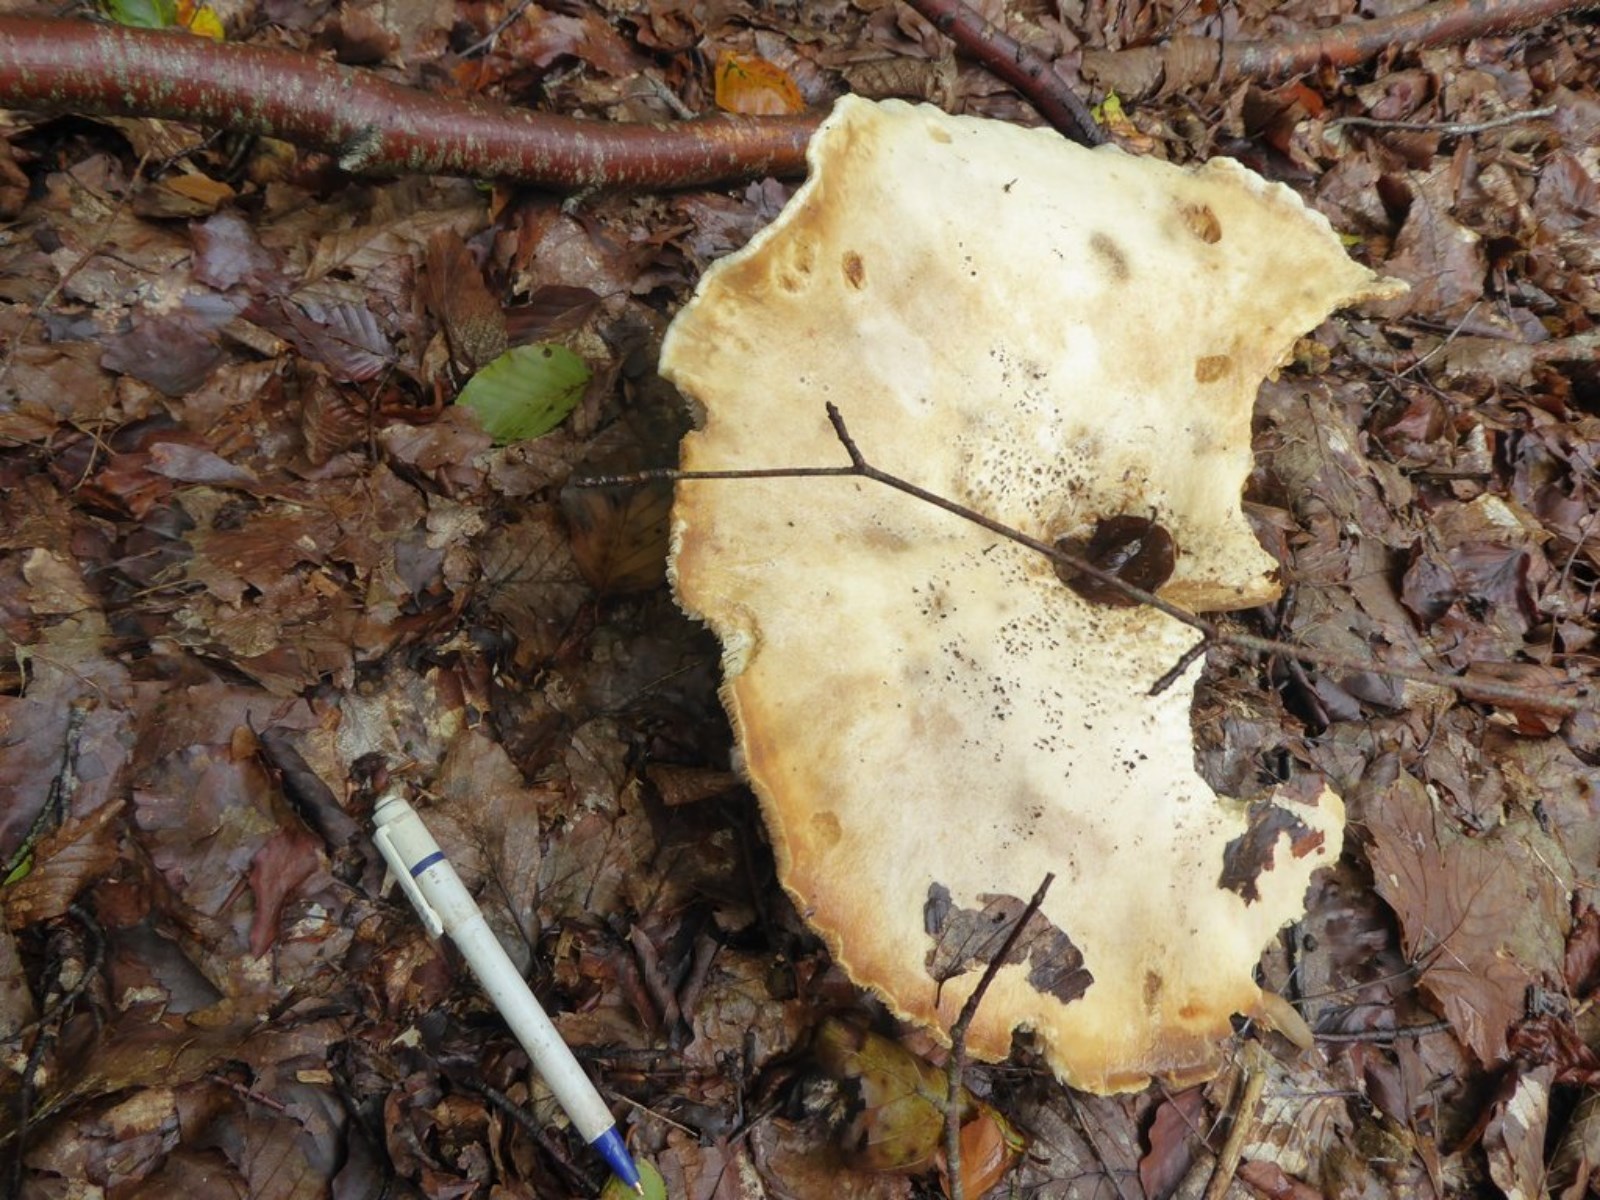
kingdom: Fungi
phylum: Basidiomycota
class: Agaricomycetes
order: Agaricales
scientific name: Agaricales
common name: champignonordenen
